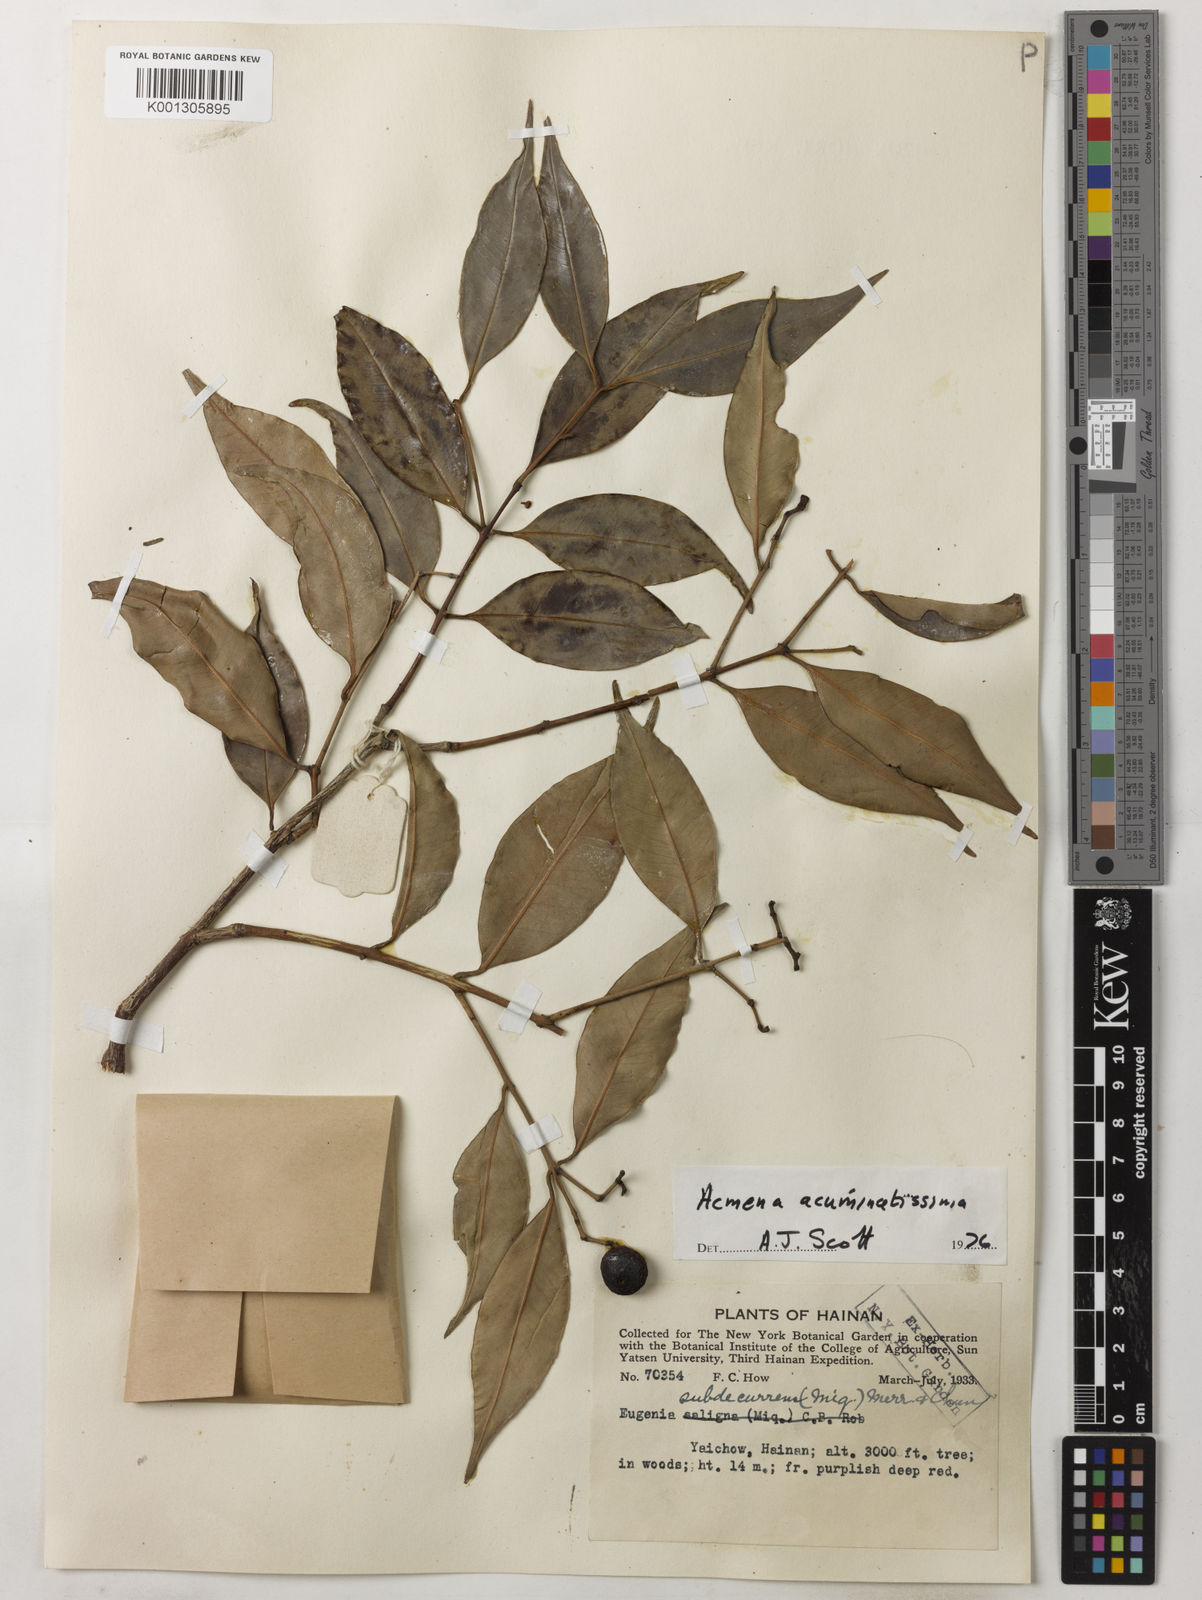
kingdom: Plantae
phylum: Tracheophyta
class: Magnoliopsida
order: Myrtales
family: Myrtaceae
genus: Syzygium
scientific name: Syzygium acuminatissimum
